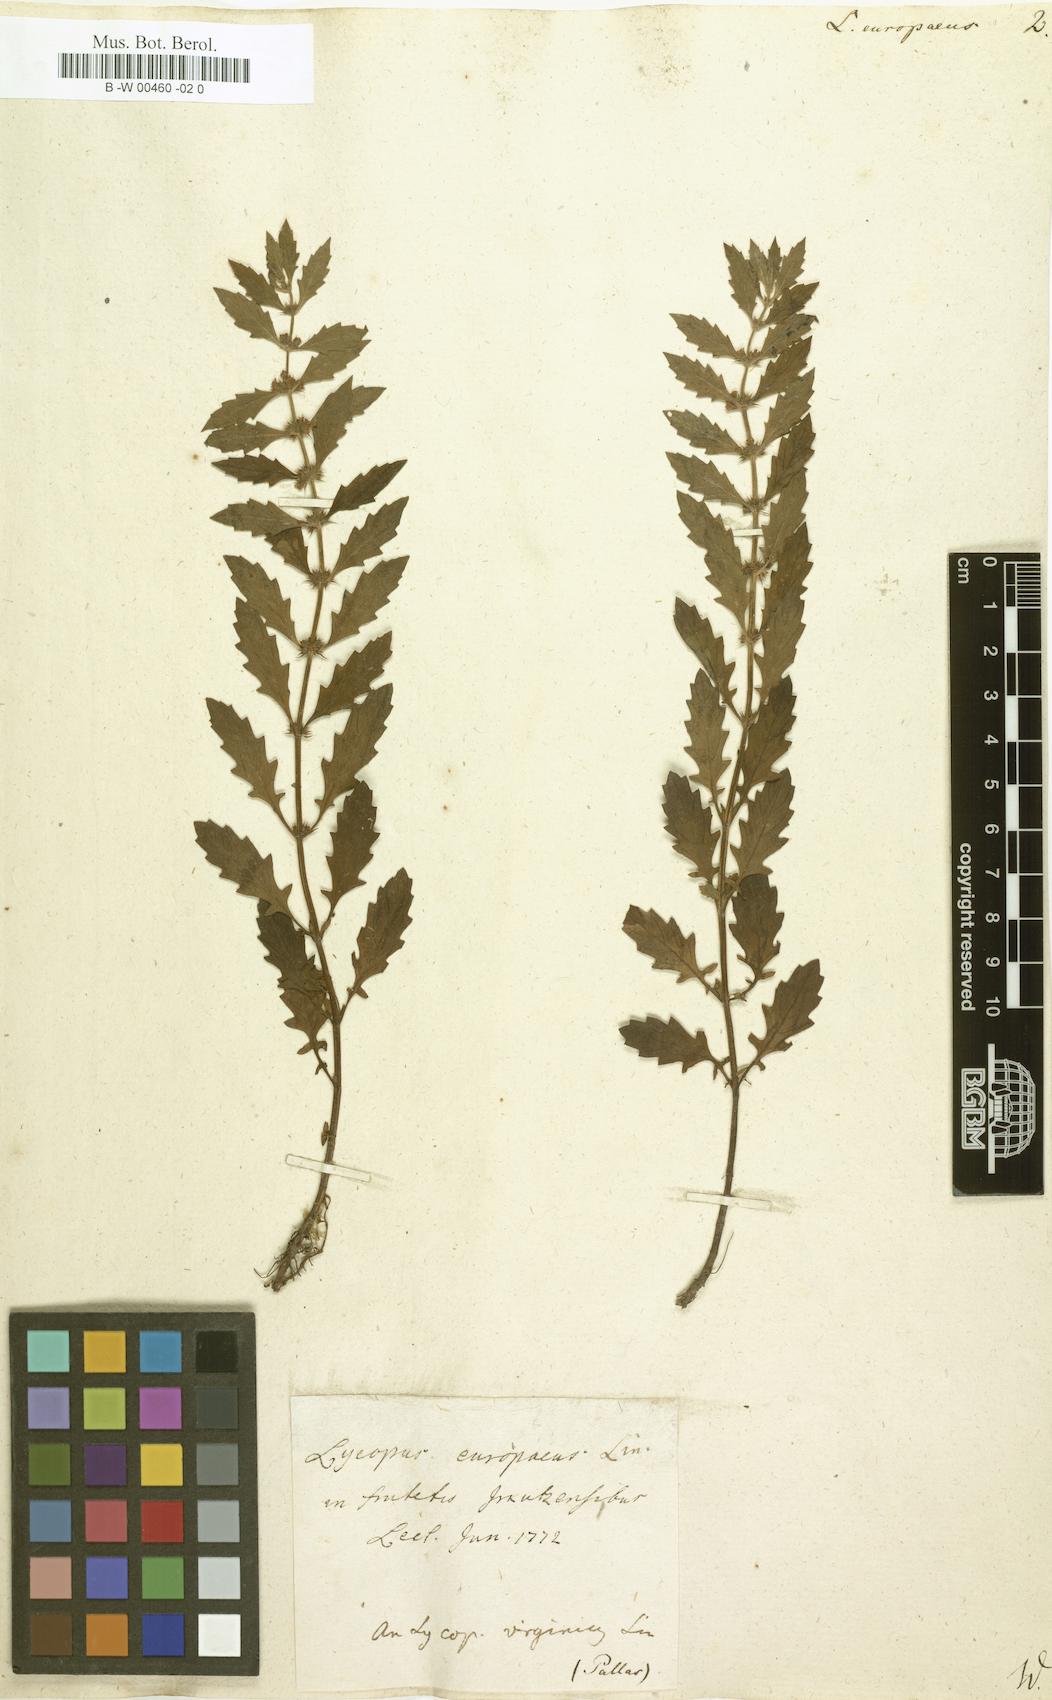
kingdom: Plantae
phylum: Tracheophyta
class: Magnoliopsida
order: Lamiales
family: Lamiaceae
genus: Lycopus
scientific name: Lycopus europaeus
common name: European bugleweed
